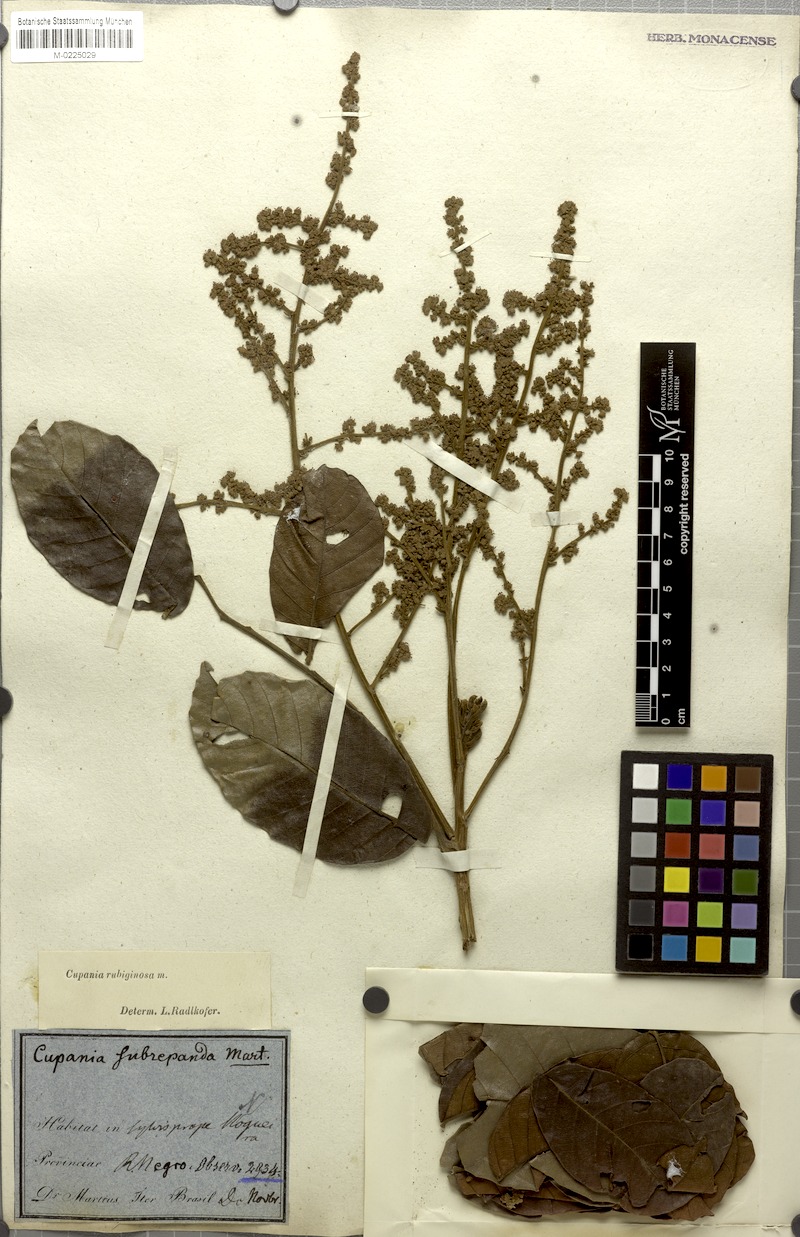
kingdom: Plantae
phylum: Tracheophyta
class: Magnoliopsida
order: Sapindales
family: Sapindaceae
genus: Cupania
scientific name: Cupania rubiginosa
